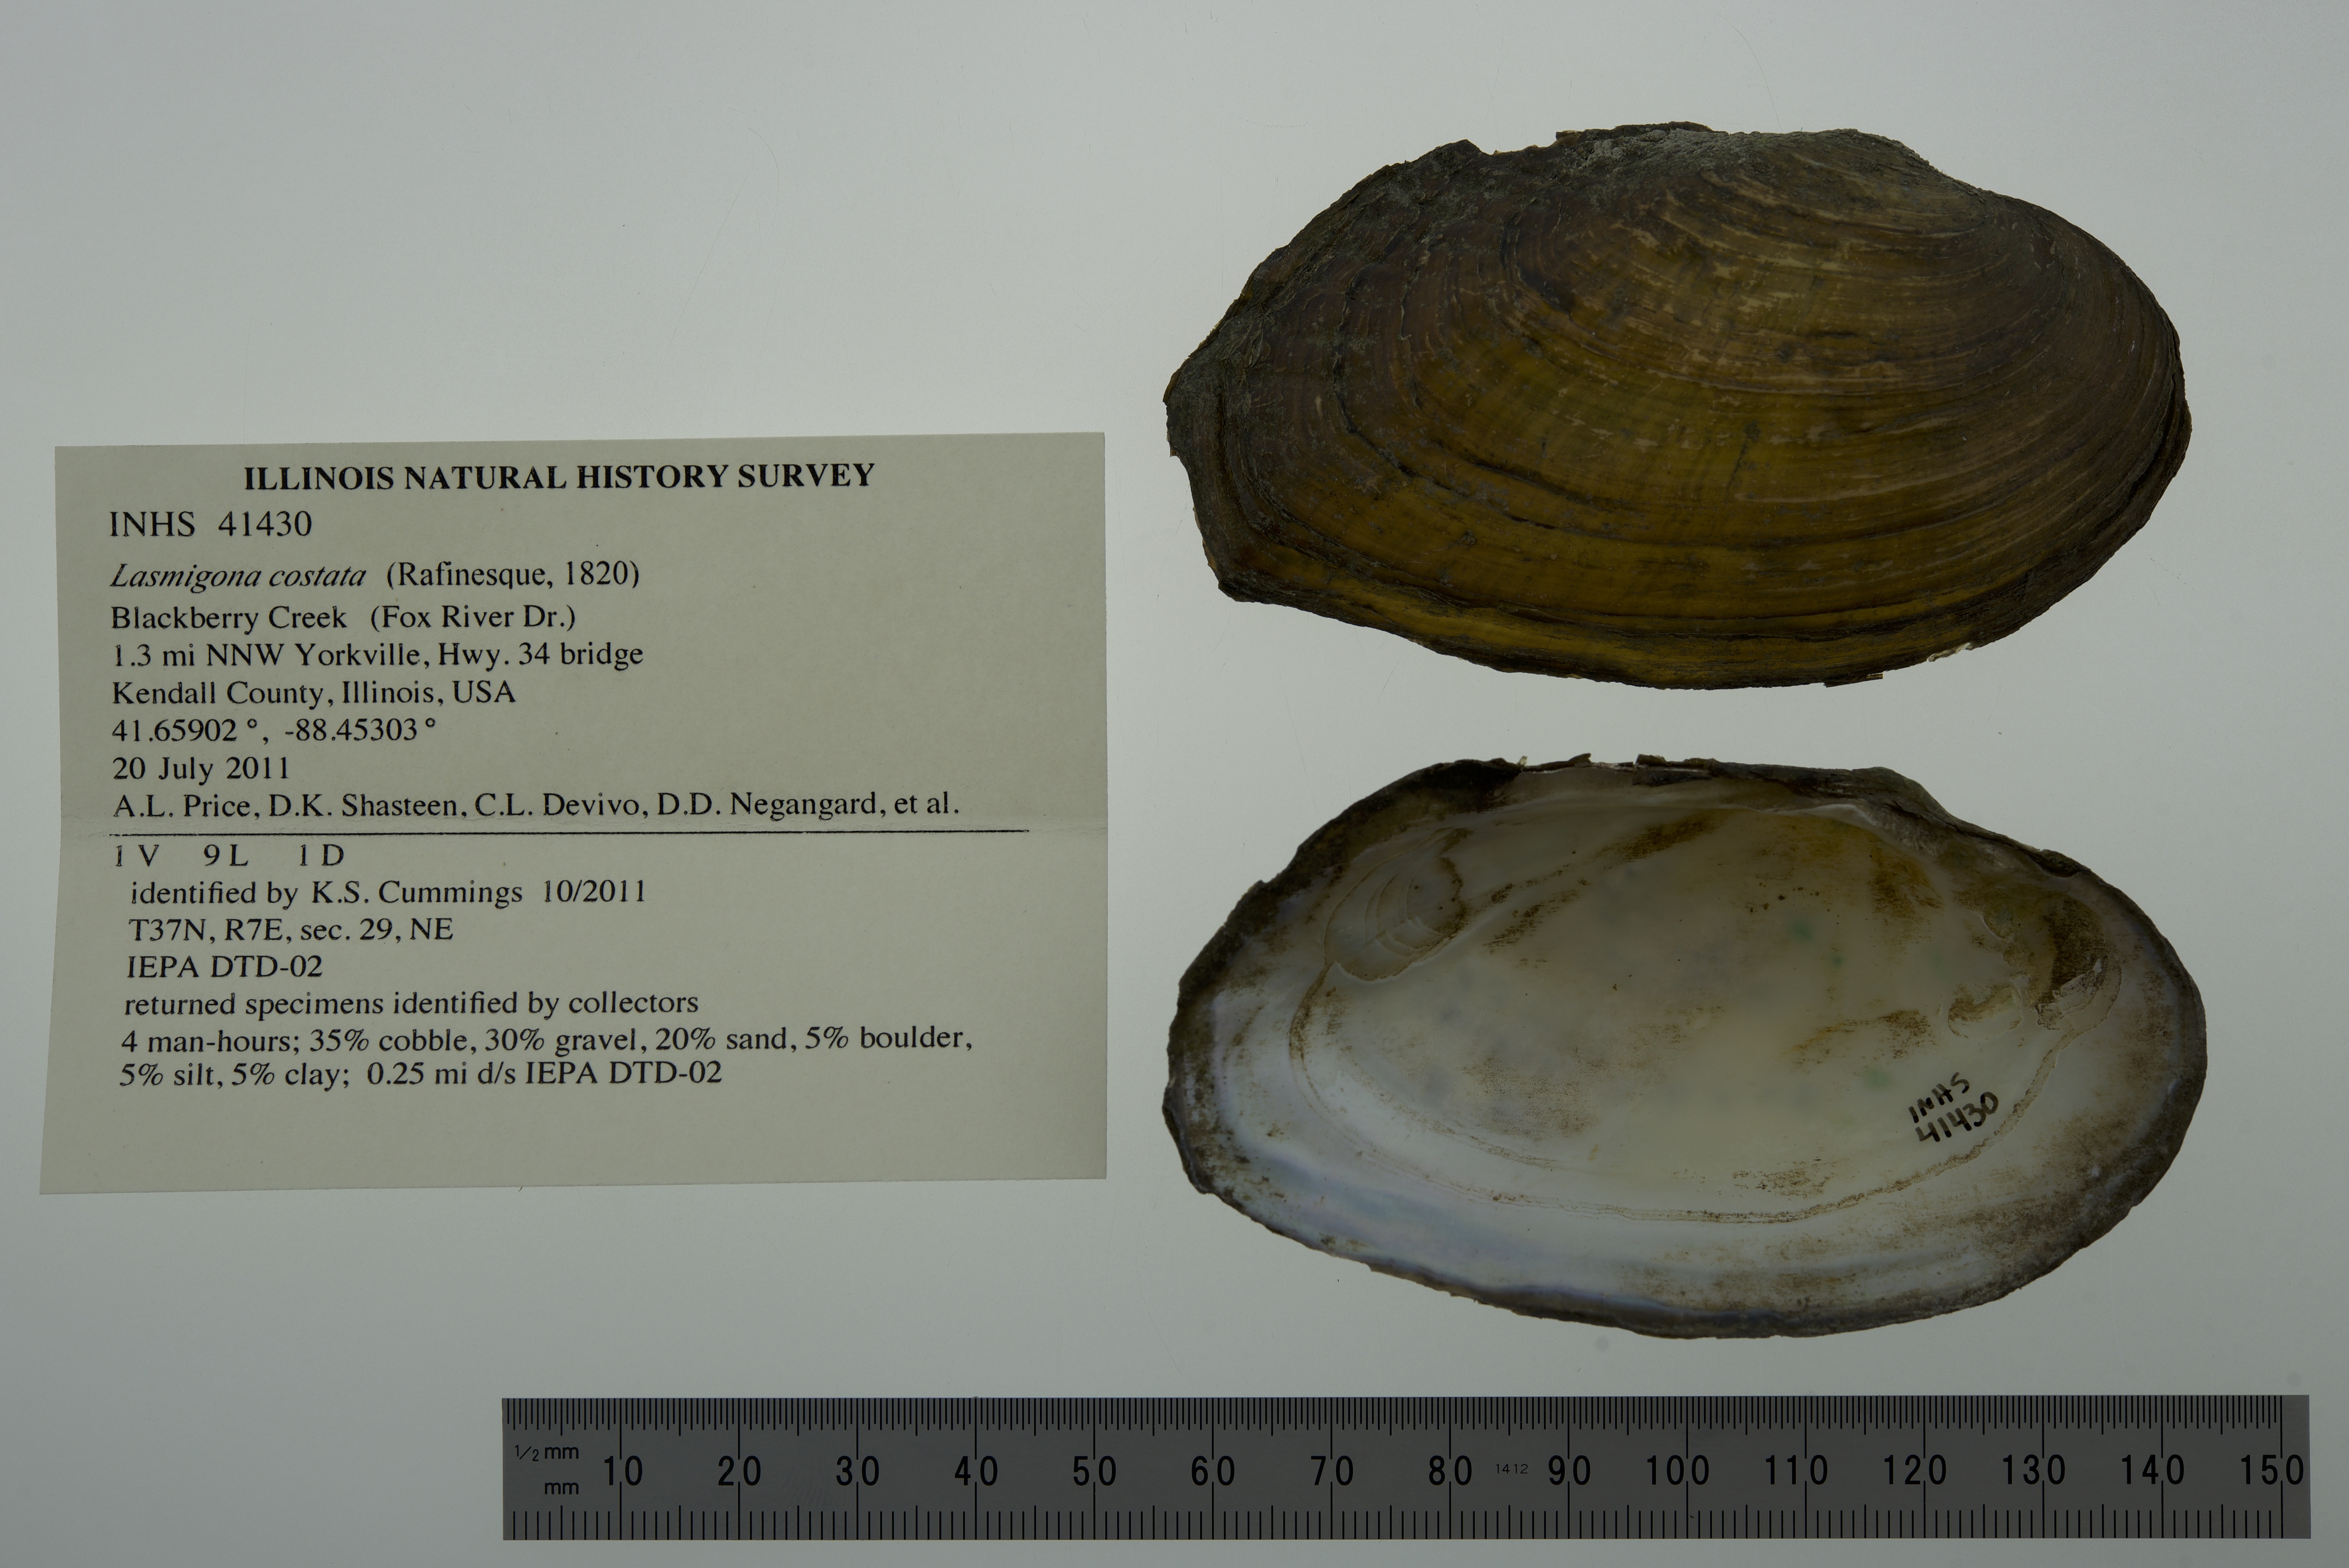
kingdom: Animalia
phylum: Mollusca
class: Bivalvia
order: Unionida
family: Unionidae
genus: Lasmigona
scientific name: Lasmigona costata
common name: Flutedshell
